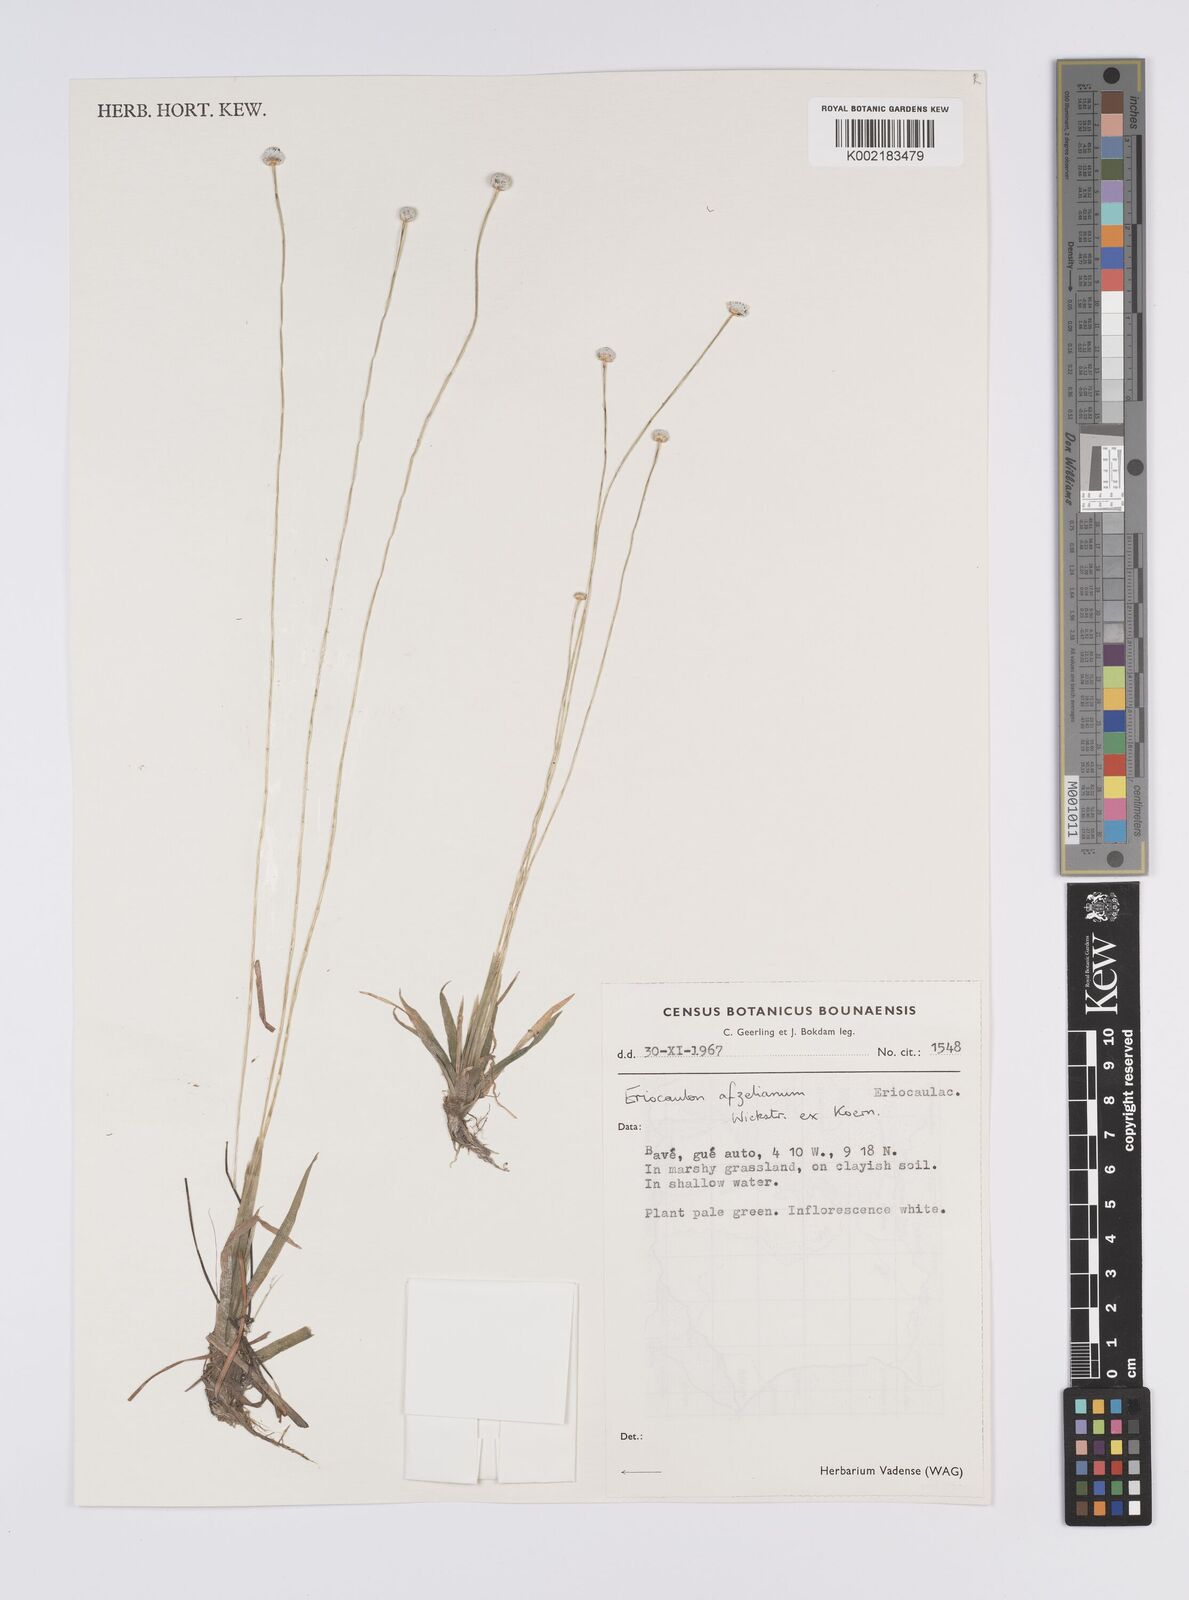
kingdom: Plantae
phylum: Tracheophyta
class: Liliopsida
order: Poales
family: Eriocaulaceae
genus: Eriocaulon
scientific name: Eriocaulon afzelianum
